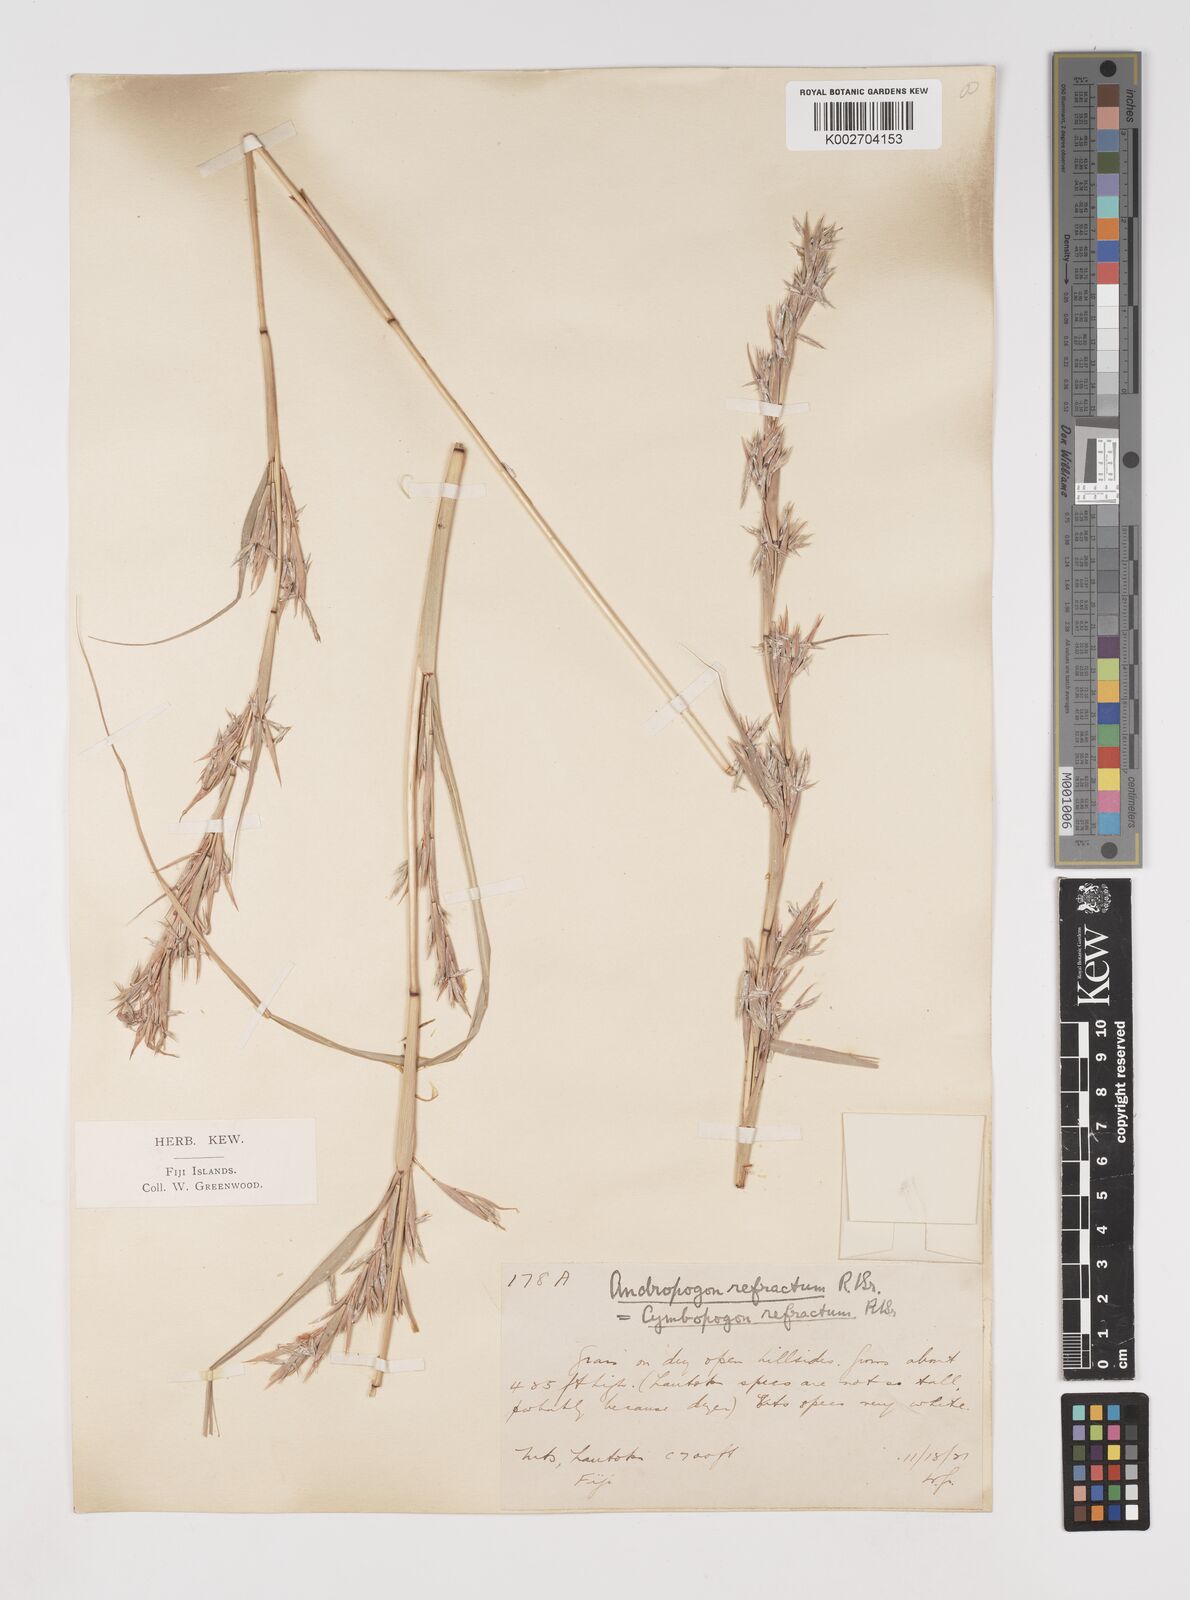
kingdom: Plantae
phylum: Tracheophyta
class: Liliopsida
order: Poales
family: Poaceae
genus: Cymbopogon
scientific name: Cymbopogon refractus
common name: Barbwire grass
